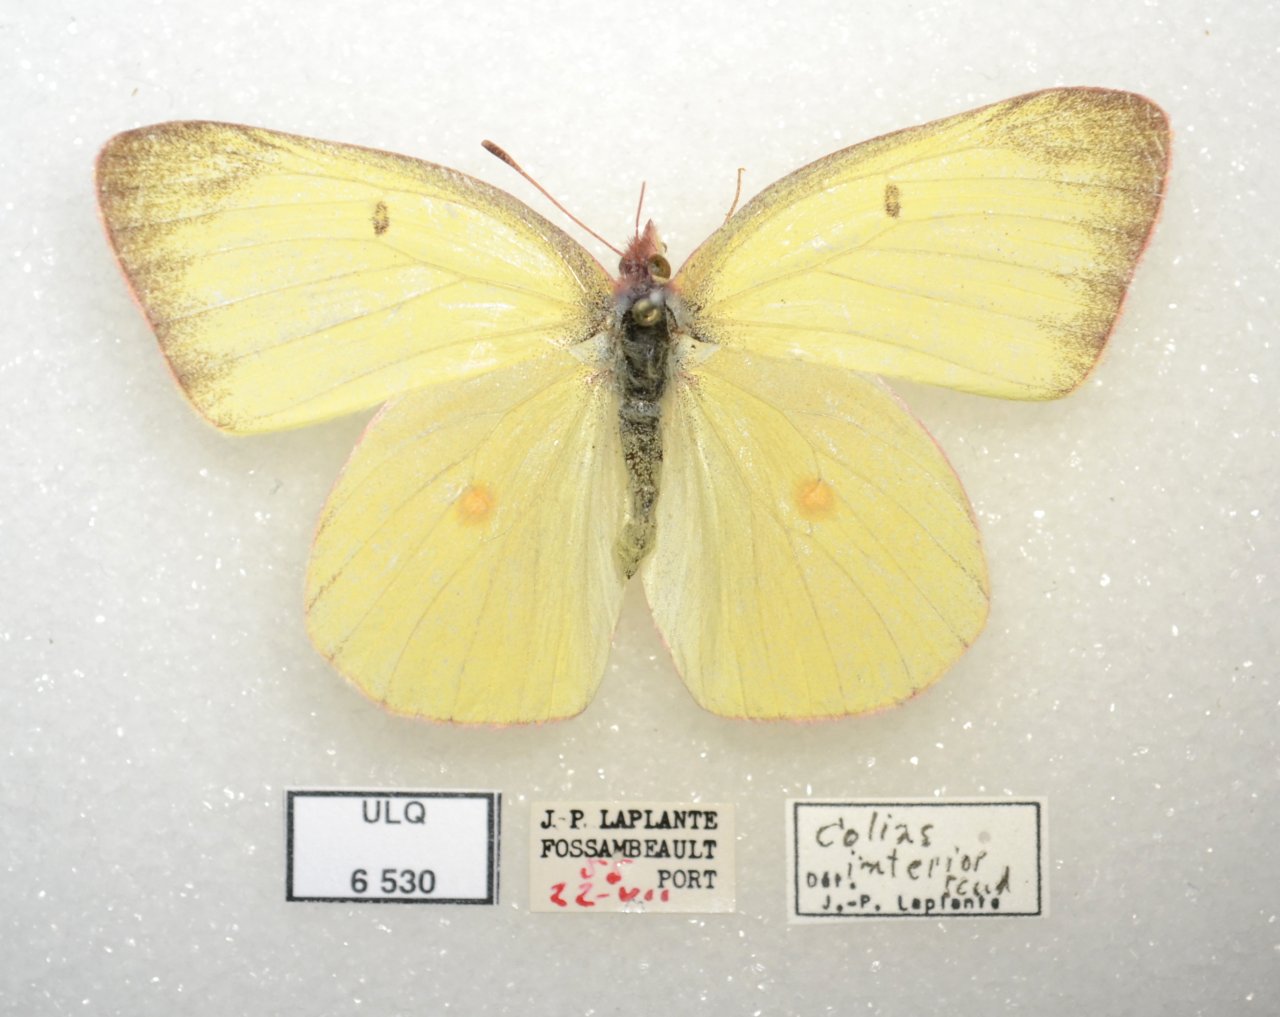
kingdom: Animalia
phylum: Arthropoda
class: Insecta
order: Lepidoptera
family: Pieridae
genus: Colias
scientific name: Colias interior
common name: Pink-edged Sulphur
